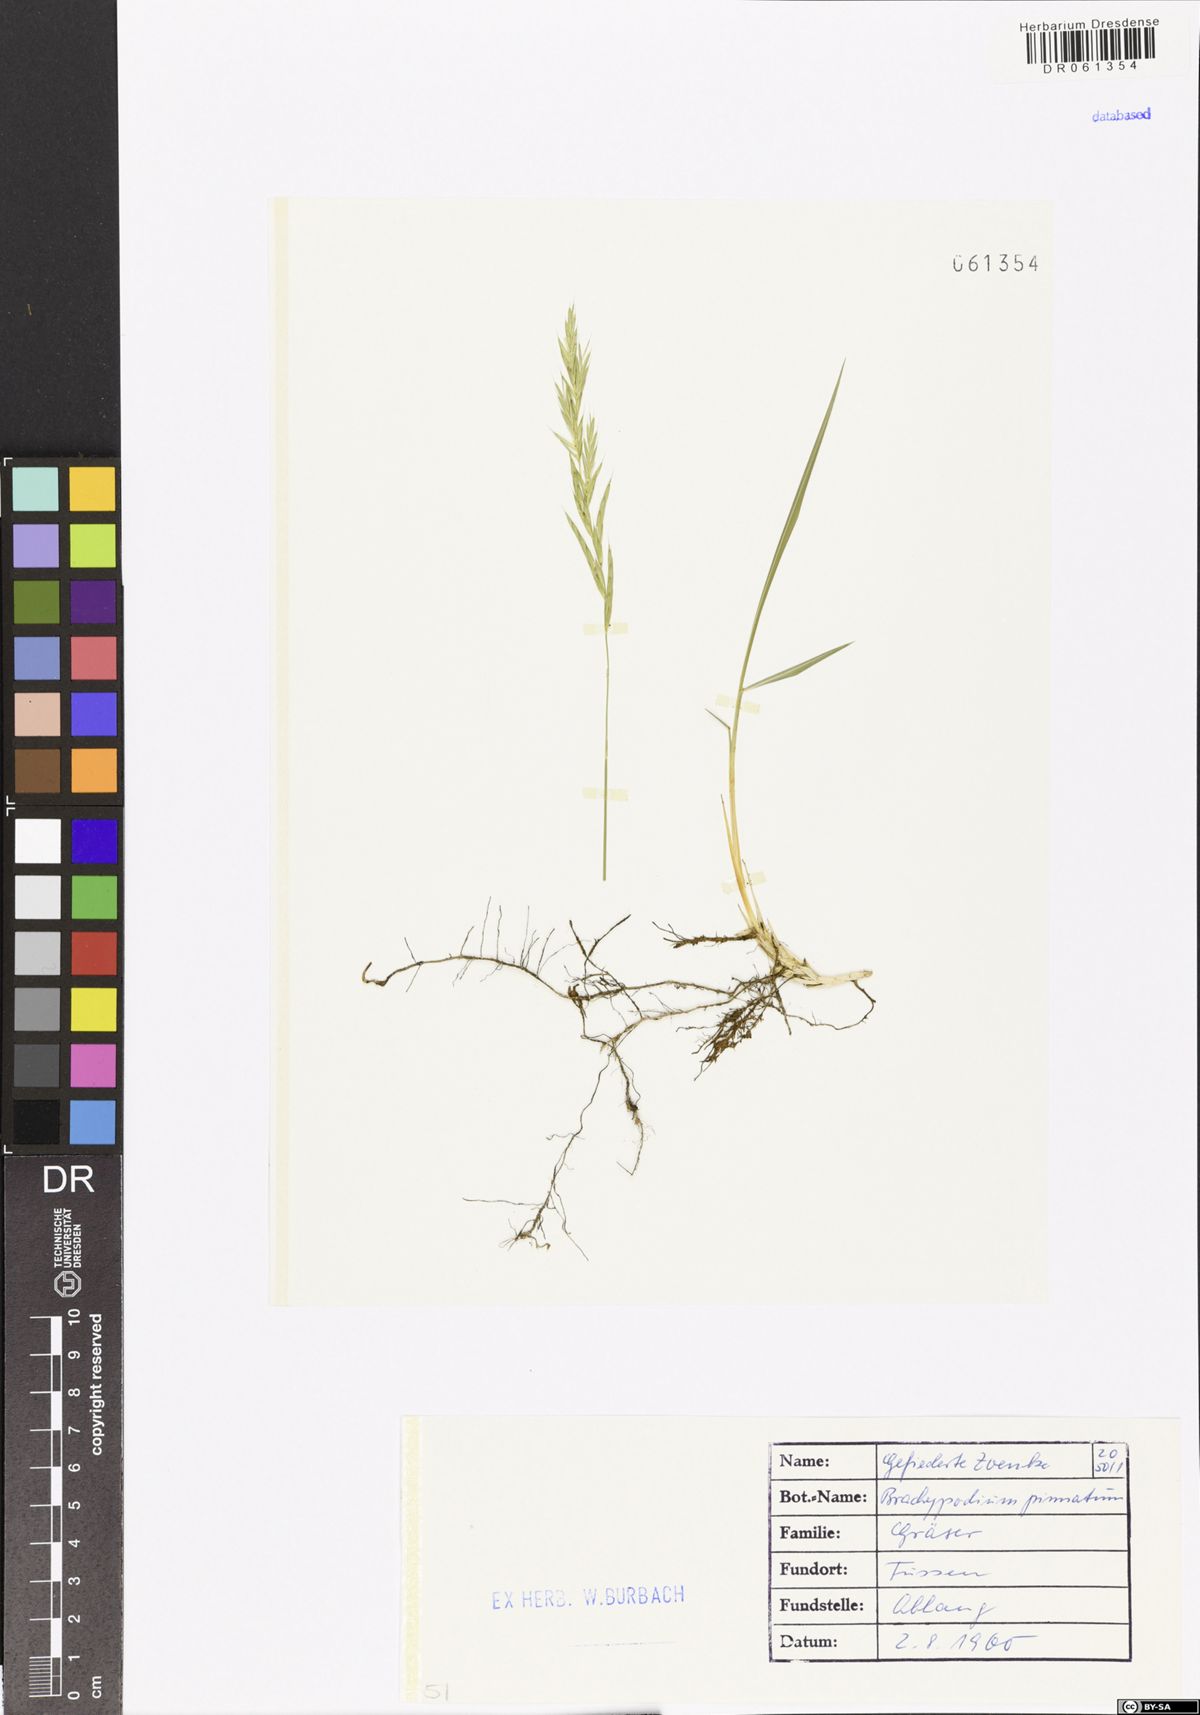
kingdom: Plantae
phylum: Tracheophyta
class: Liliopsida
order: Poales
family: Poaceae
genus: Brachypodium
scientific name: Brachypodium pinnatum
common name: Tor grass
